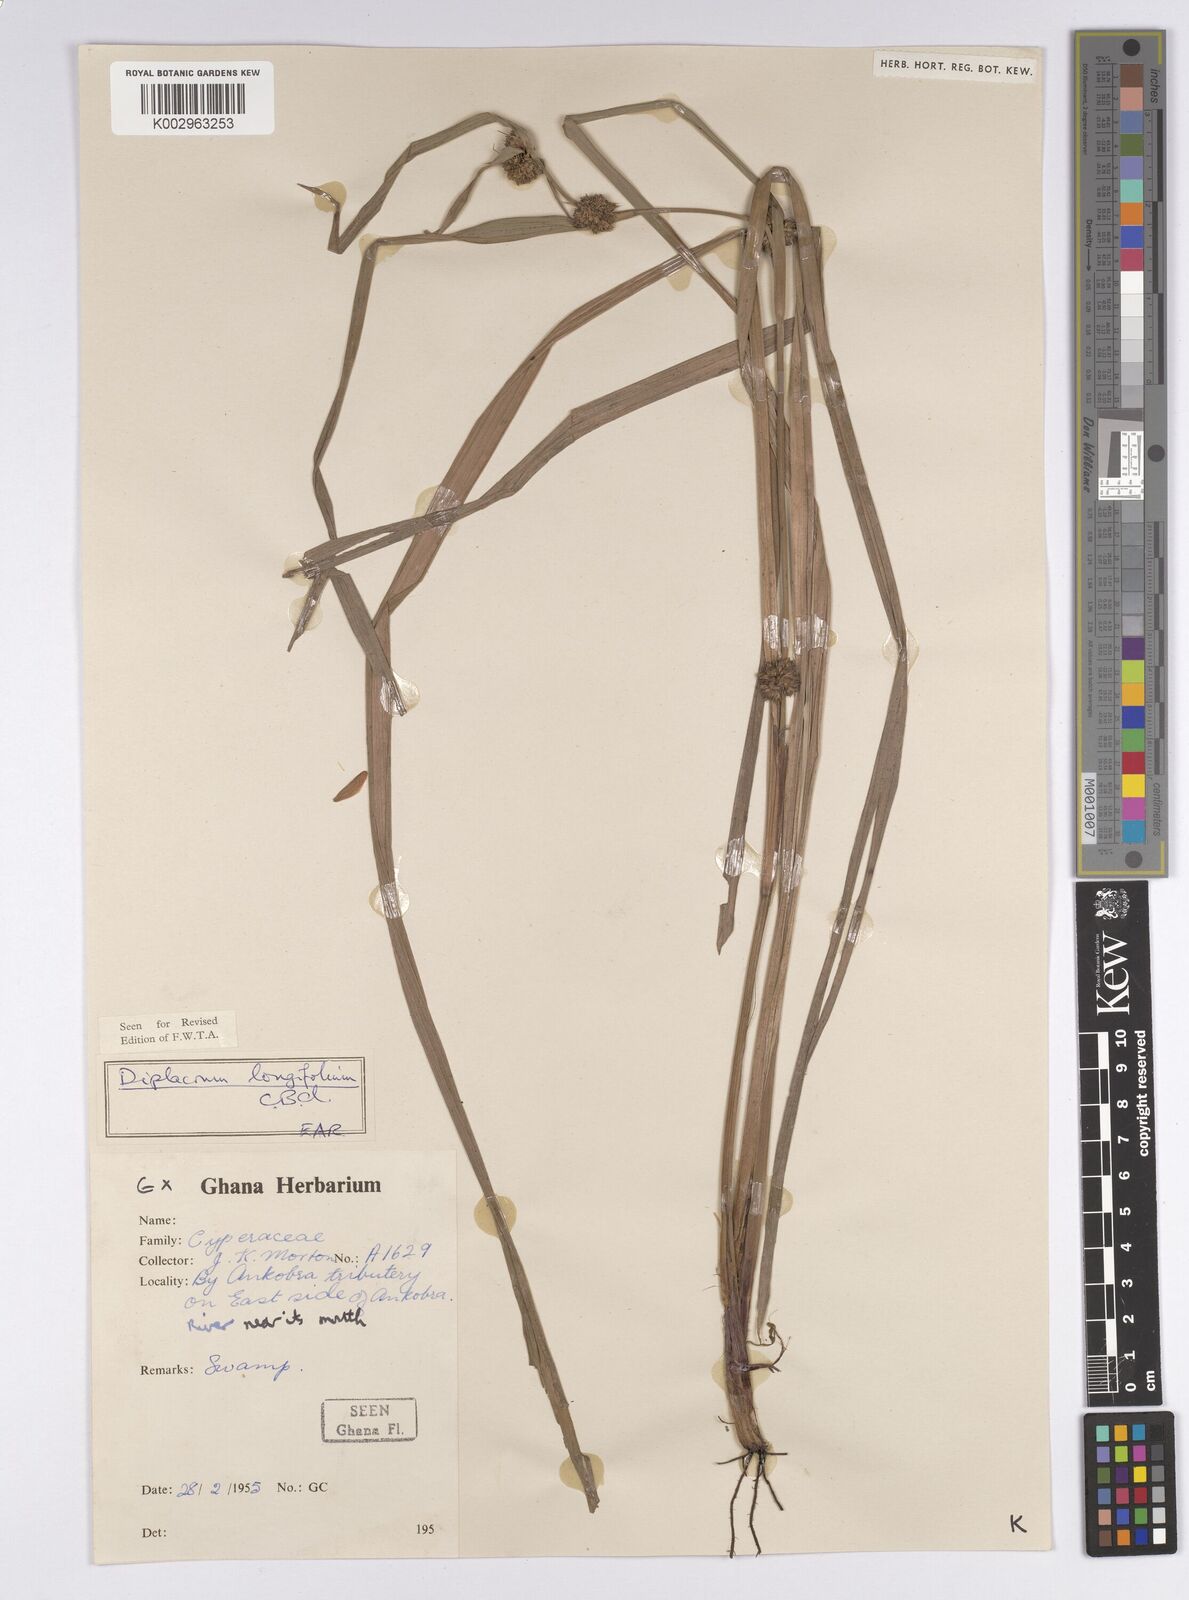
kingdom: Plantae
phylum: Tracheophyta
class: Liliopsida
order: Poales
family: Cyperaceae
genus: Diplacrum
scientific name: Diplacrum capitatum
